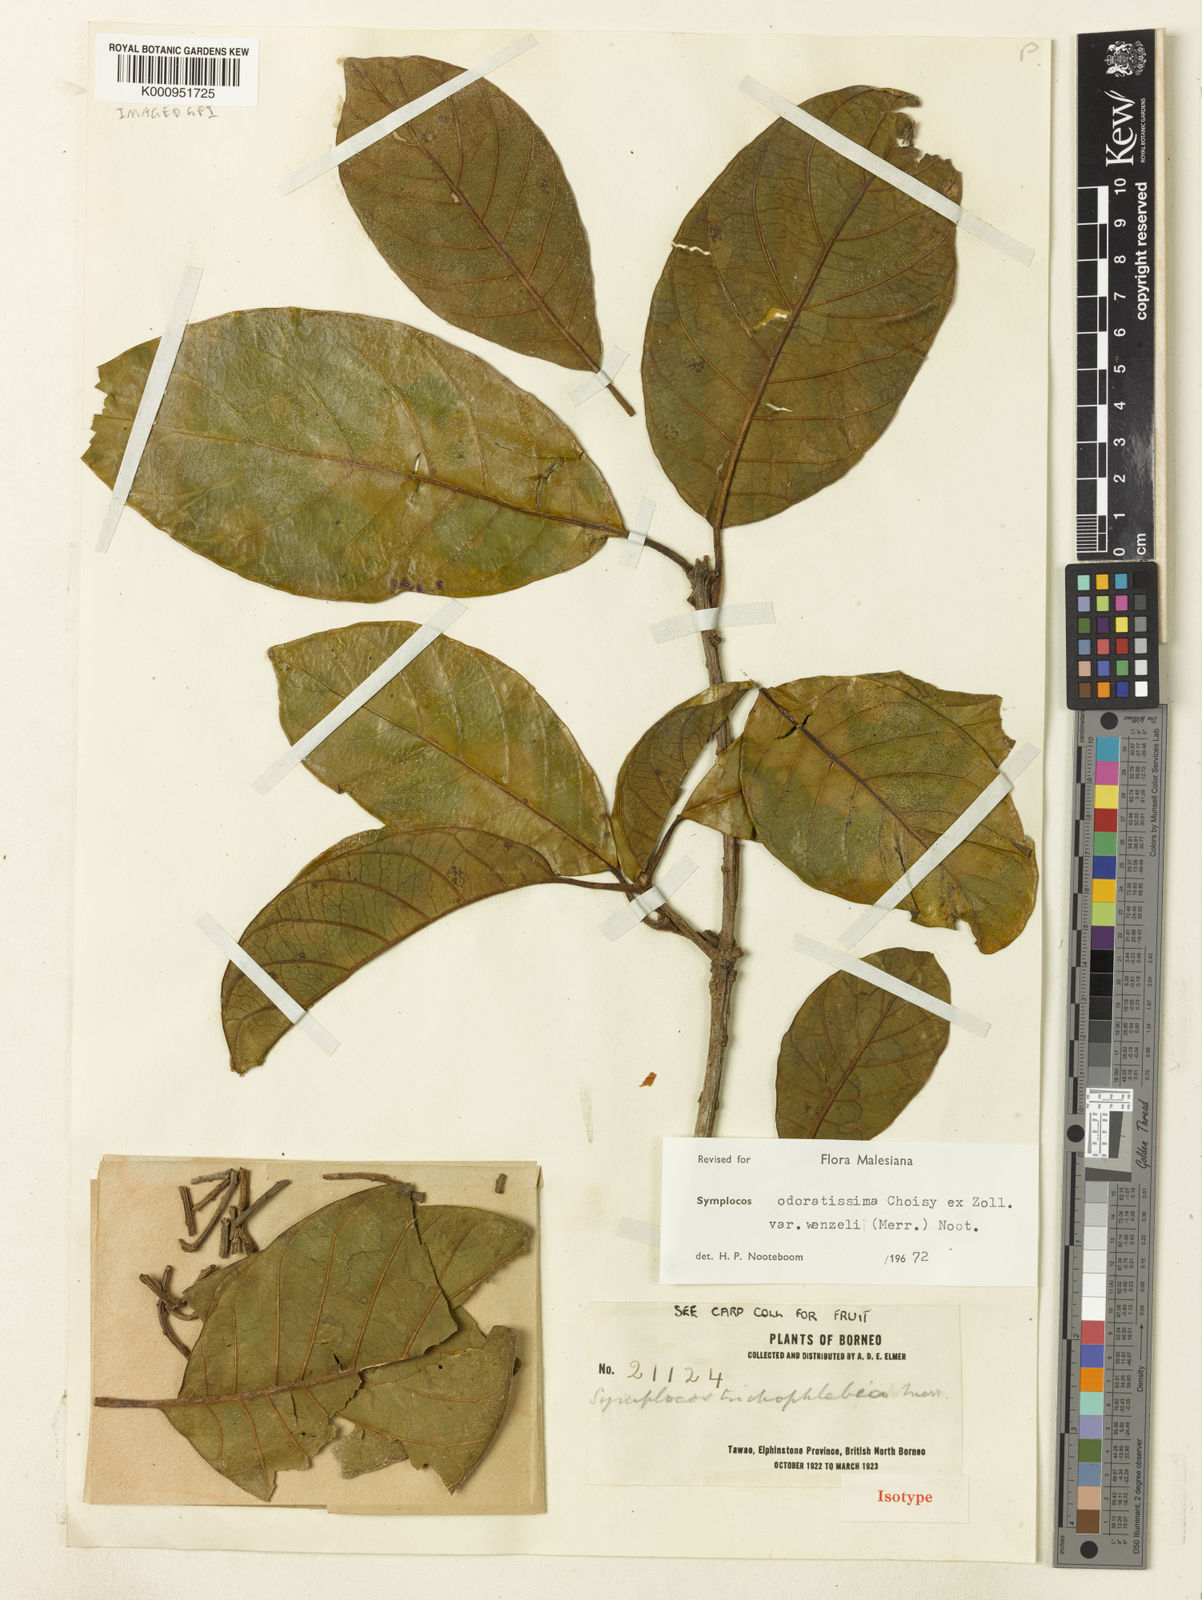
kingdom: Plantae
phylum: Tracheophyta
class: Magnoliopsida
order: Ericales
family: Symplocaceae
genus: Symplocos
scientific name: Symplocos odoratissima
